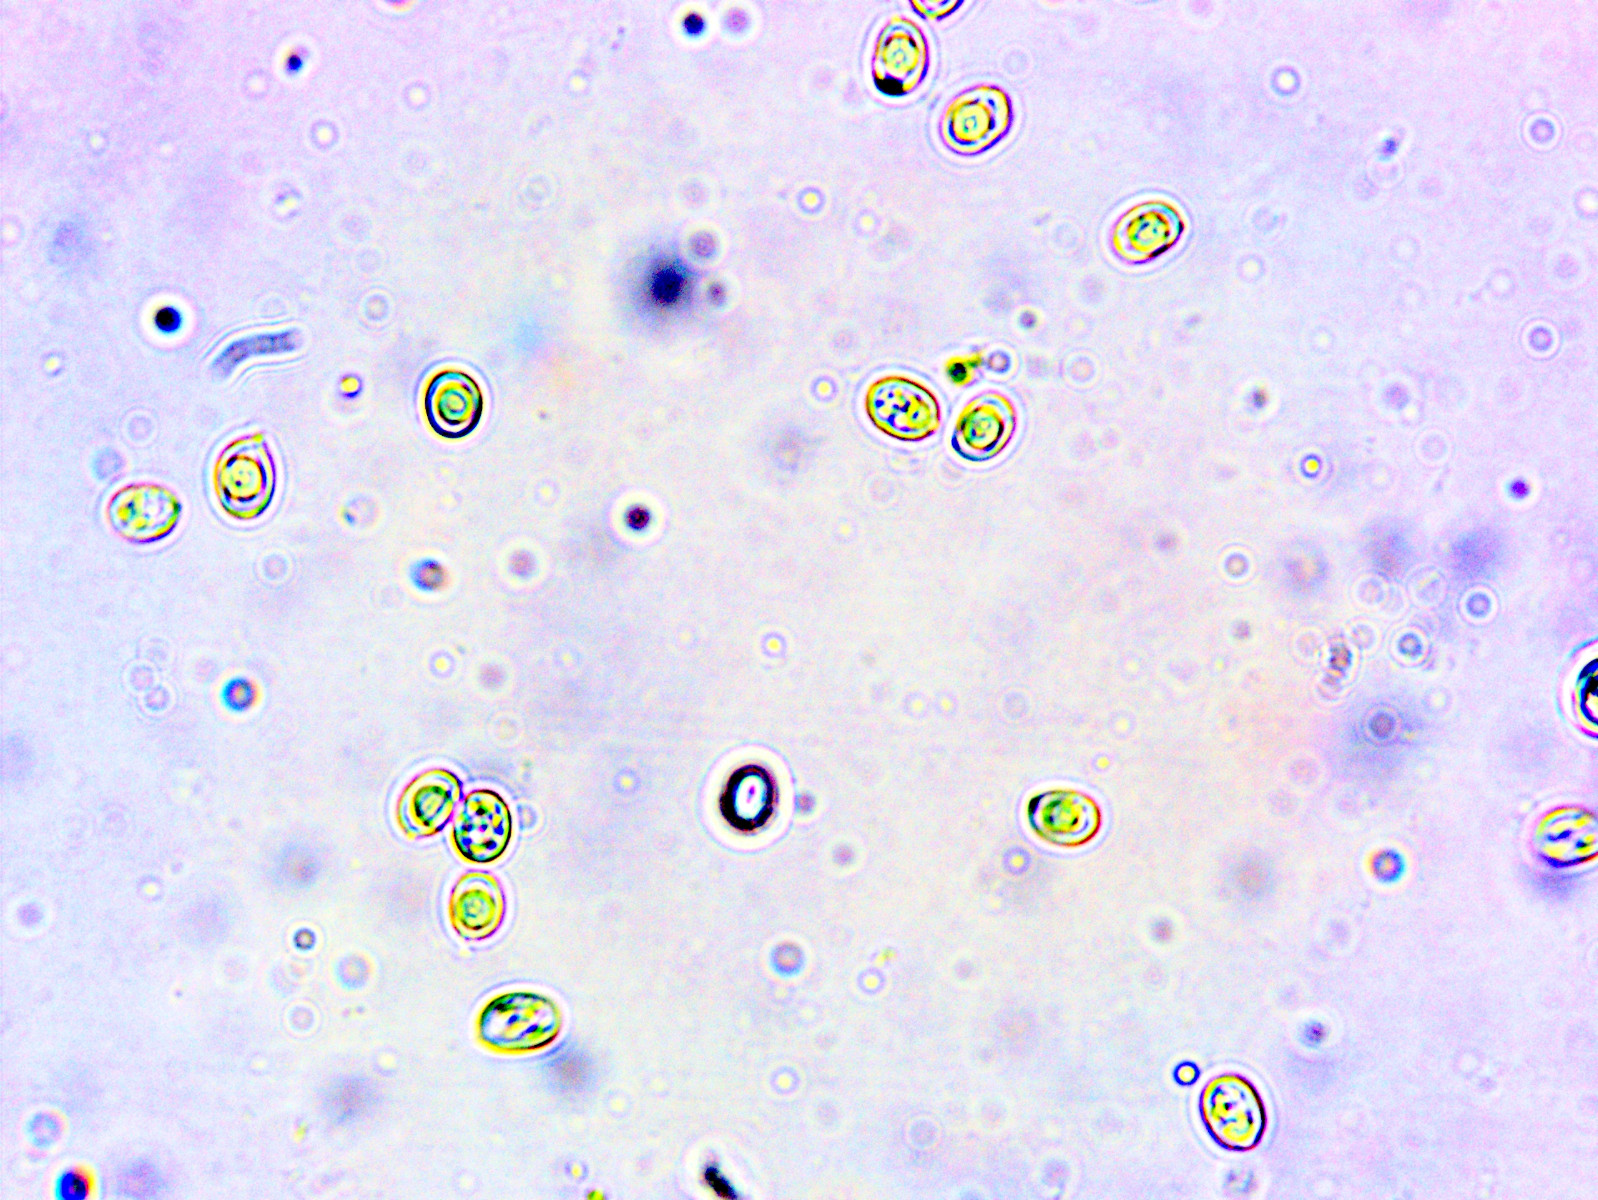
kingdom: Fungi
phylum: Basidiomycota
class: Agaricomycetes
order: Polyporales
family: Podoscyphaceae
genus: Abortiporus
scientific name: Abortiporus biennis
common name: rødmende pjalteporesvamp
